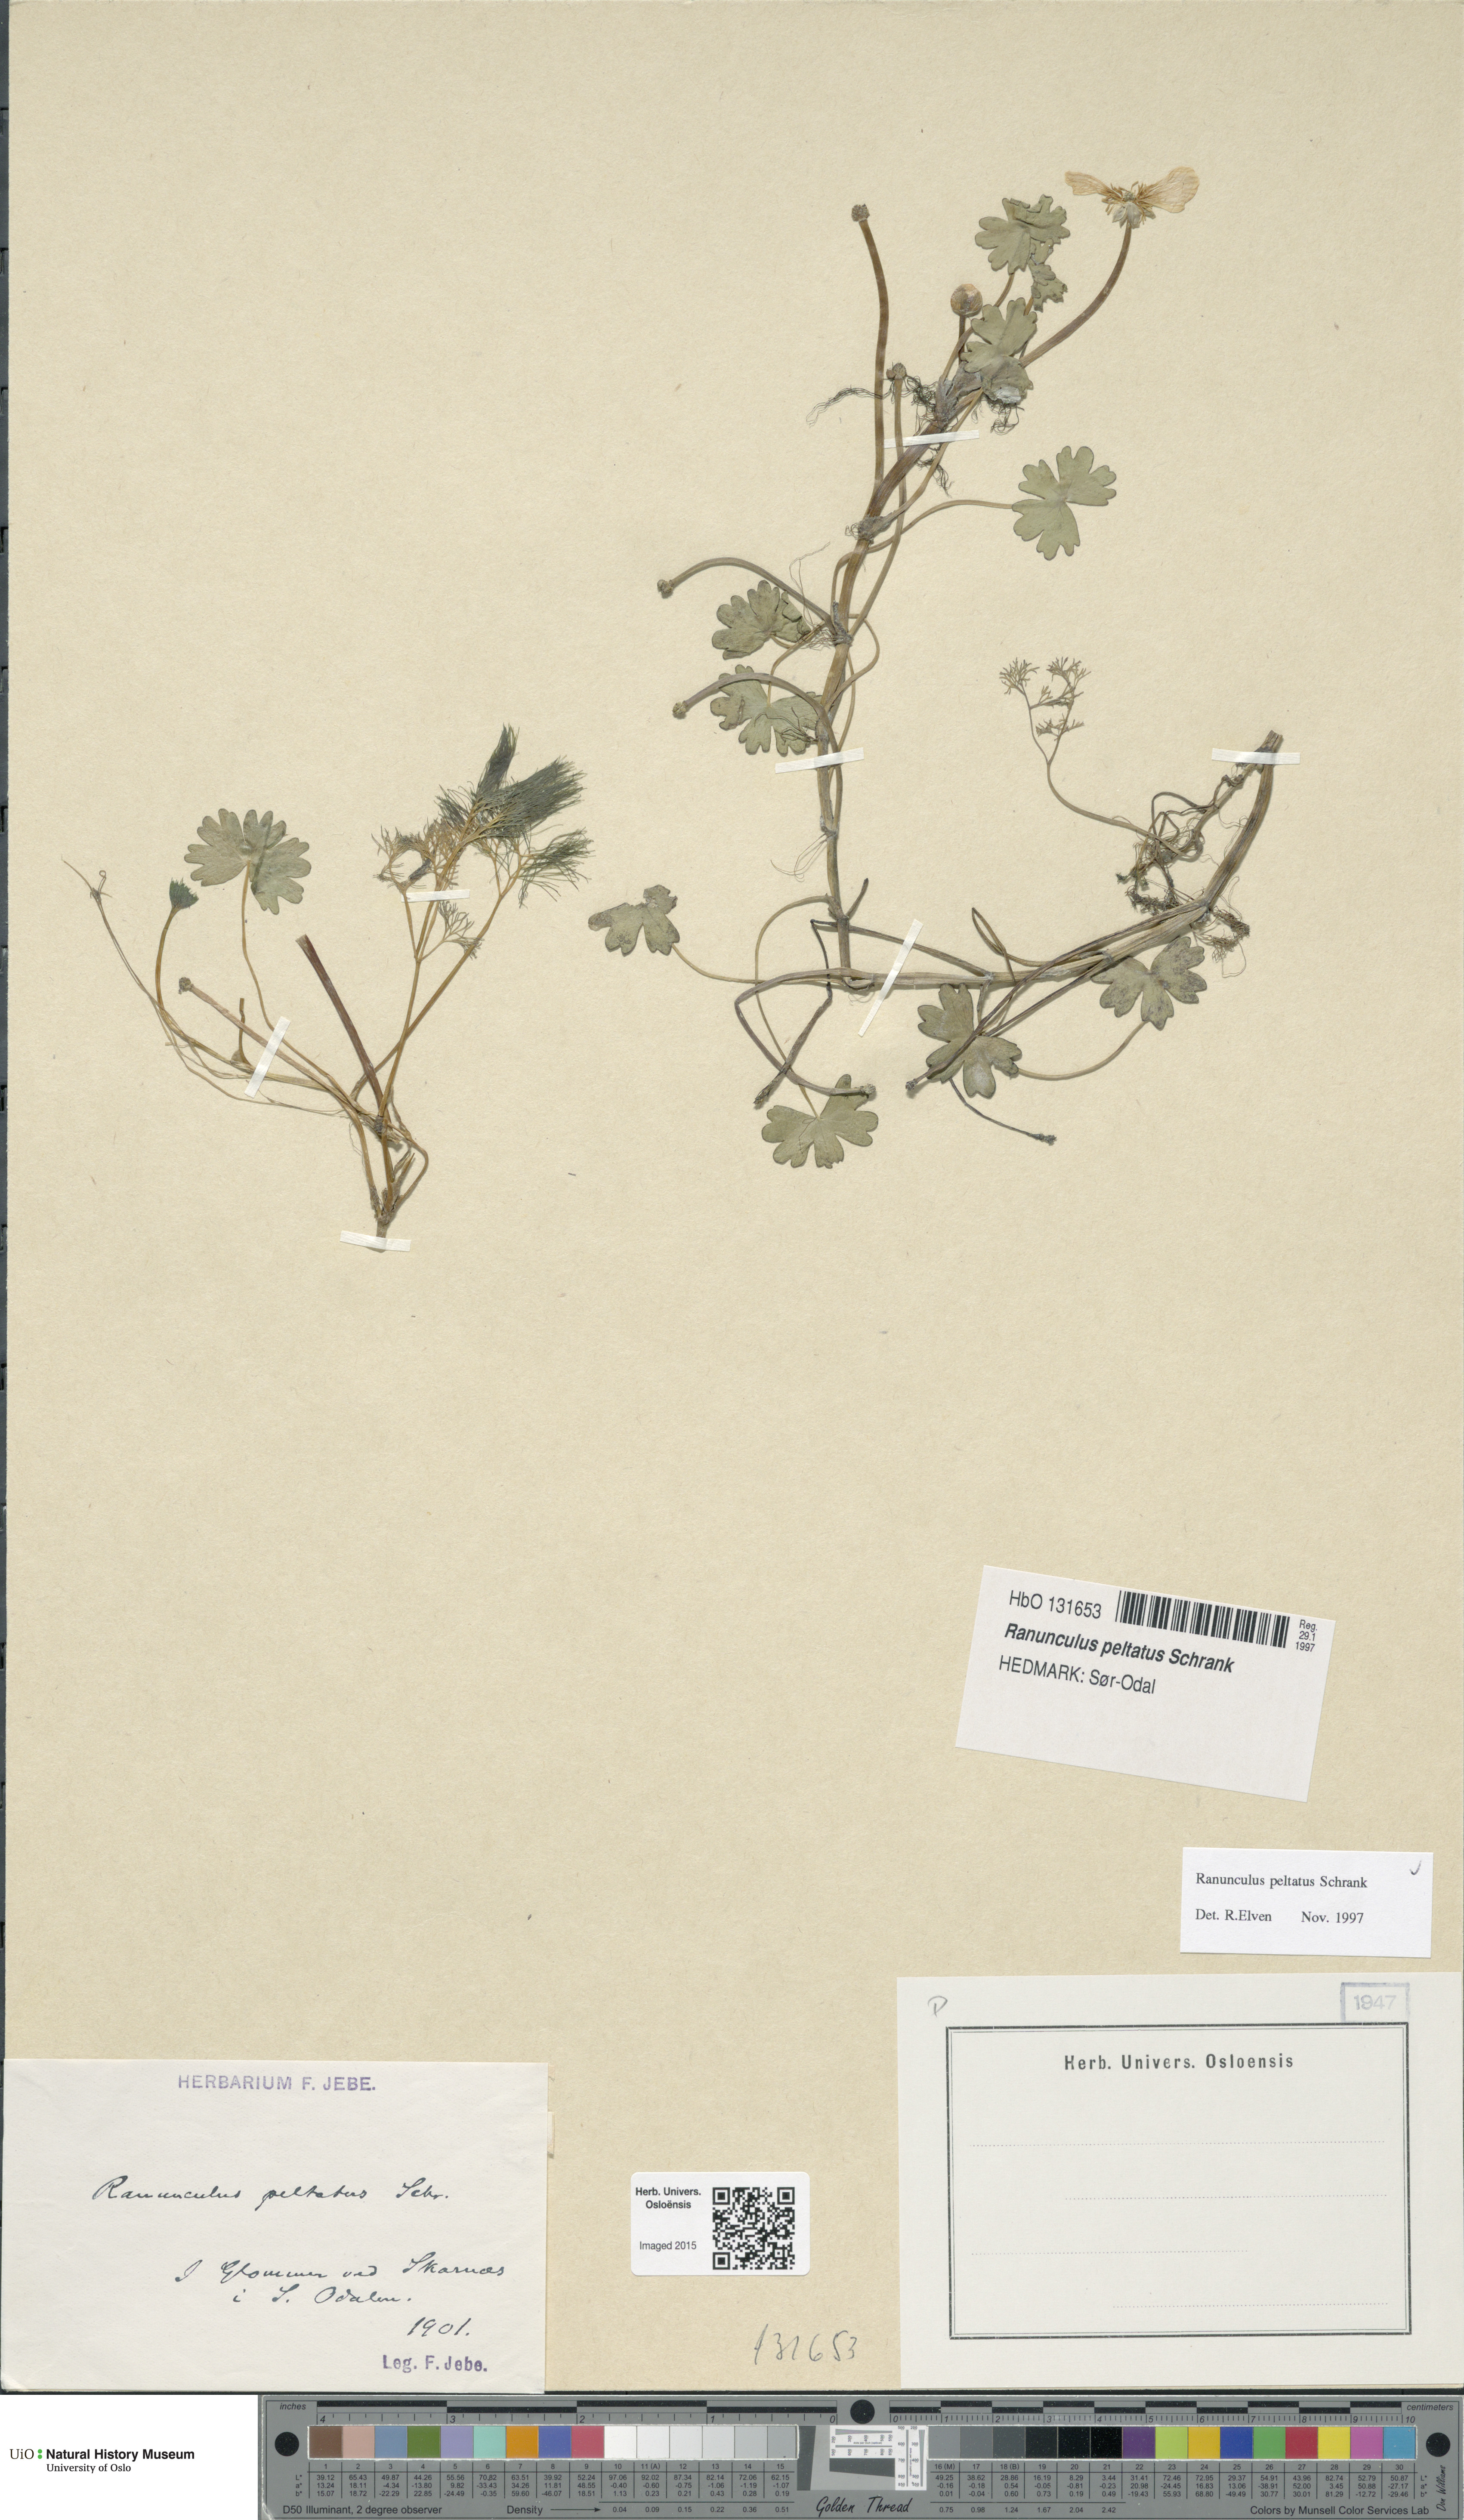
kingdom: Plantae
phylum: Tracheophyta
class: Magnoliopsida
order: Ranunculales
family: Ranunculaceae
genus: Ranunculus
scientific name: Ranunculus peltatus
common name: Pond water-crowfoot
